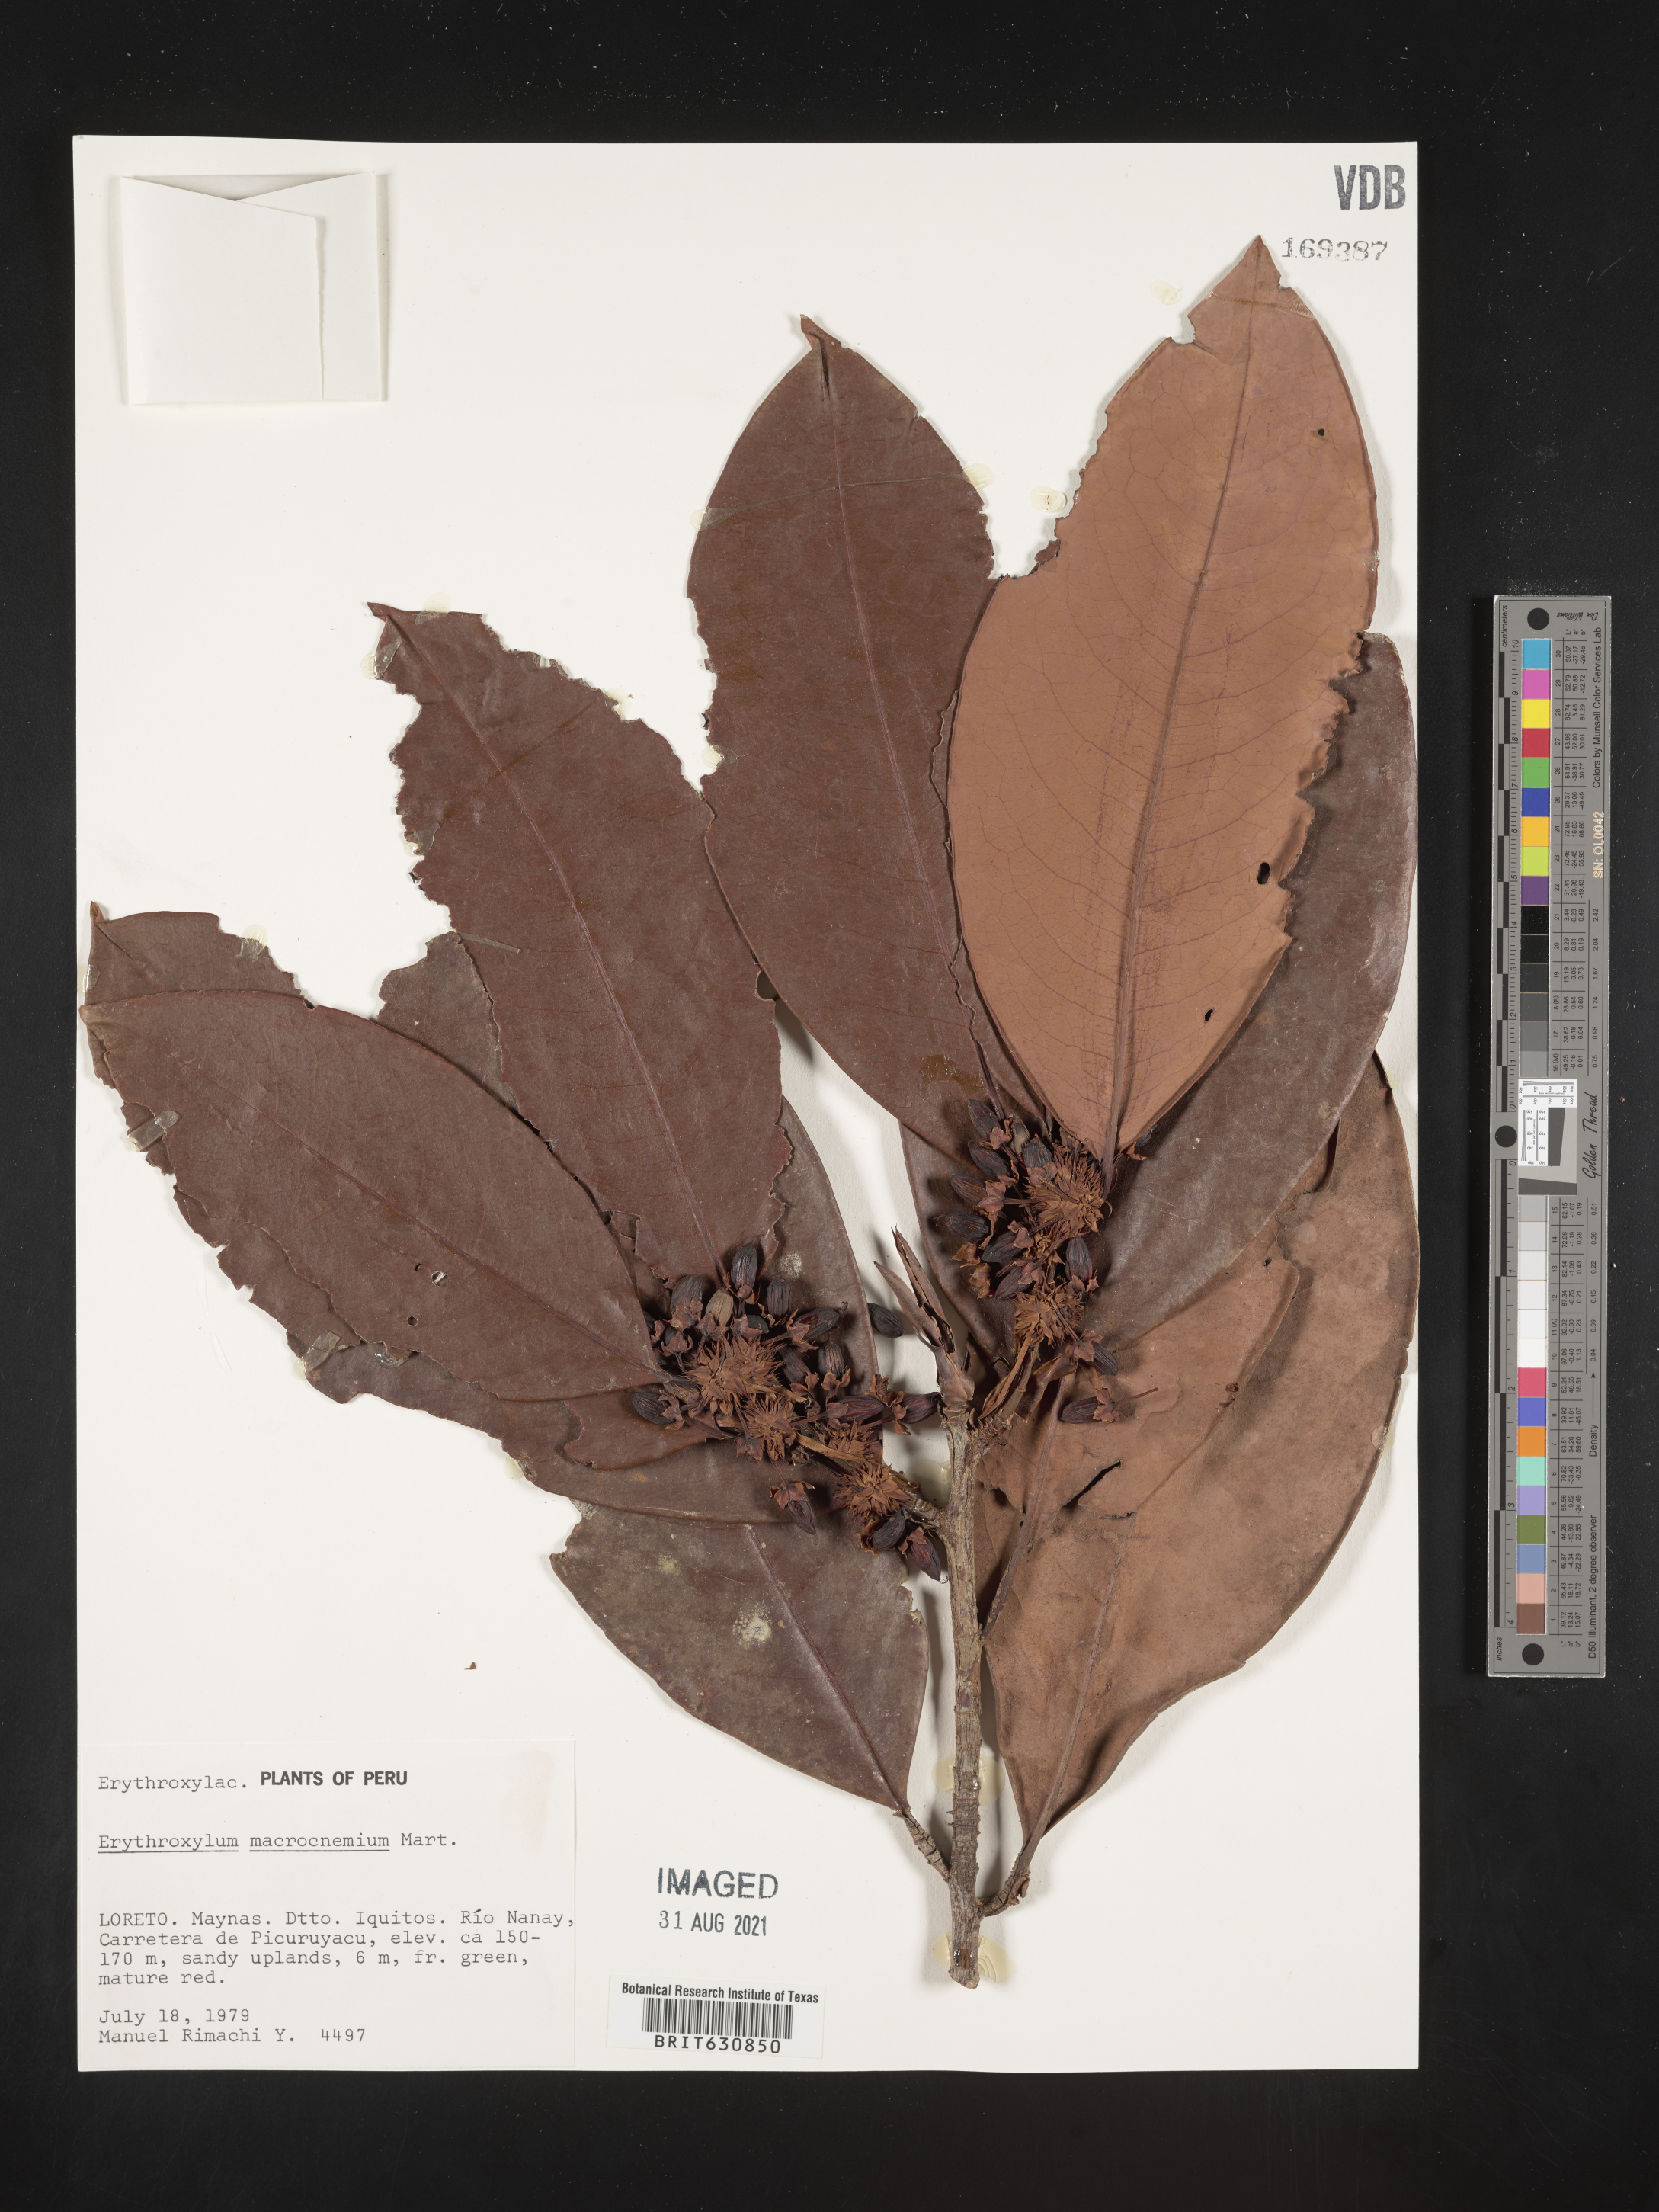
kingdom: Plantae
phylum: Tracheophyta
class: Magnoliopsida
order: Malpighiales
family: Erythroxylaceae
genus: Erythroxylum
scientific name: Erythroxylum
